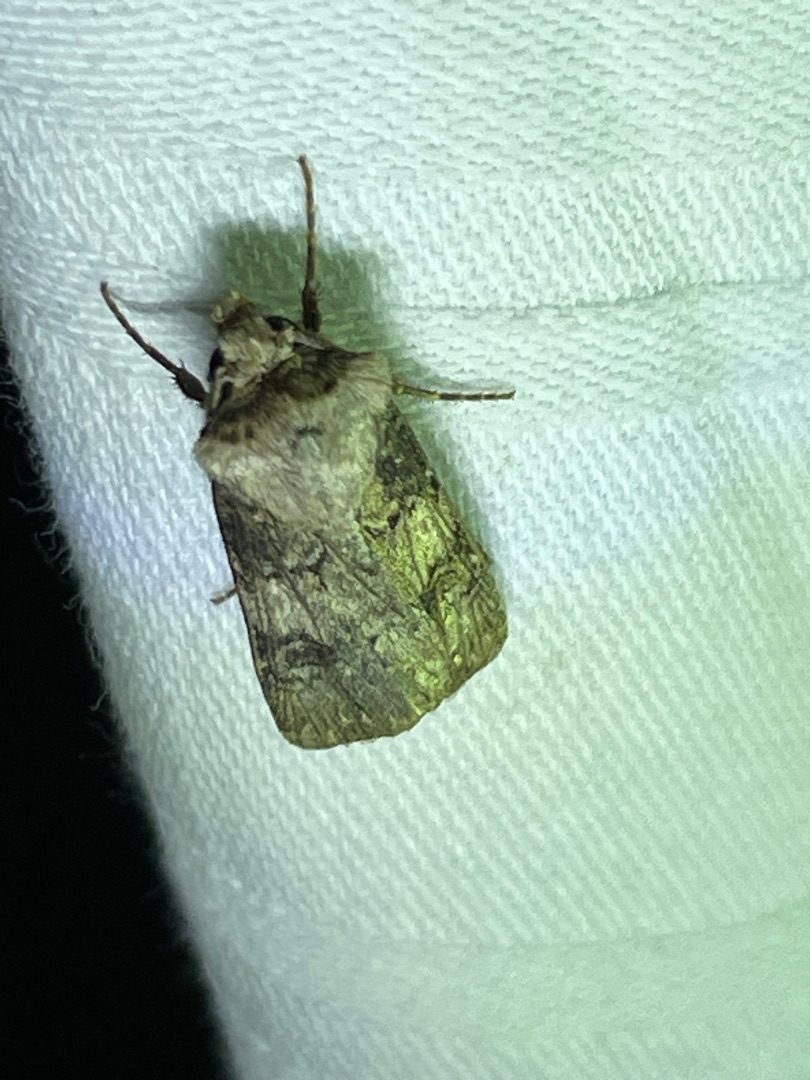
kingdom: Animalia
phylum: Arthropoda
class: Insecta
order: Lepidoptera
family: Noctuidae
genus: Agrotis
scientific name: Agrotis puta
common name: Frønnet landmand
